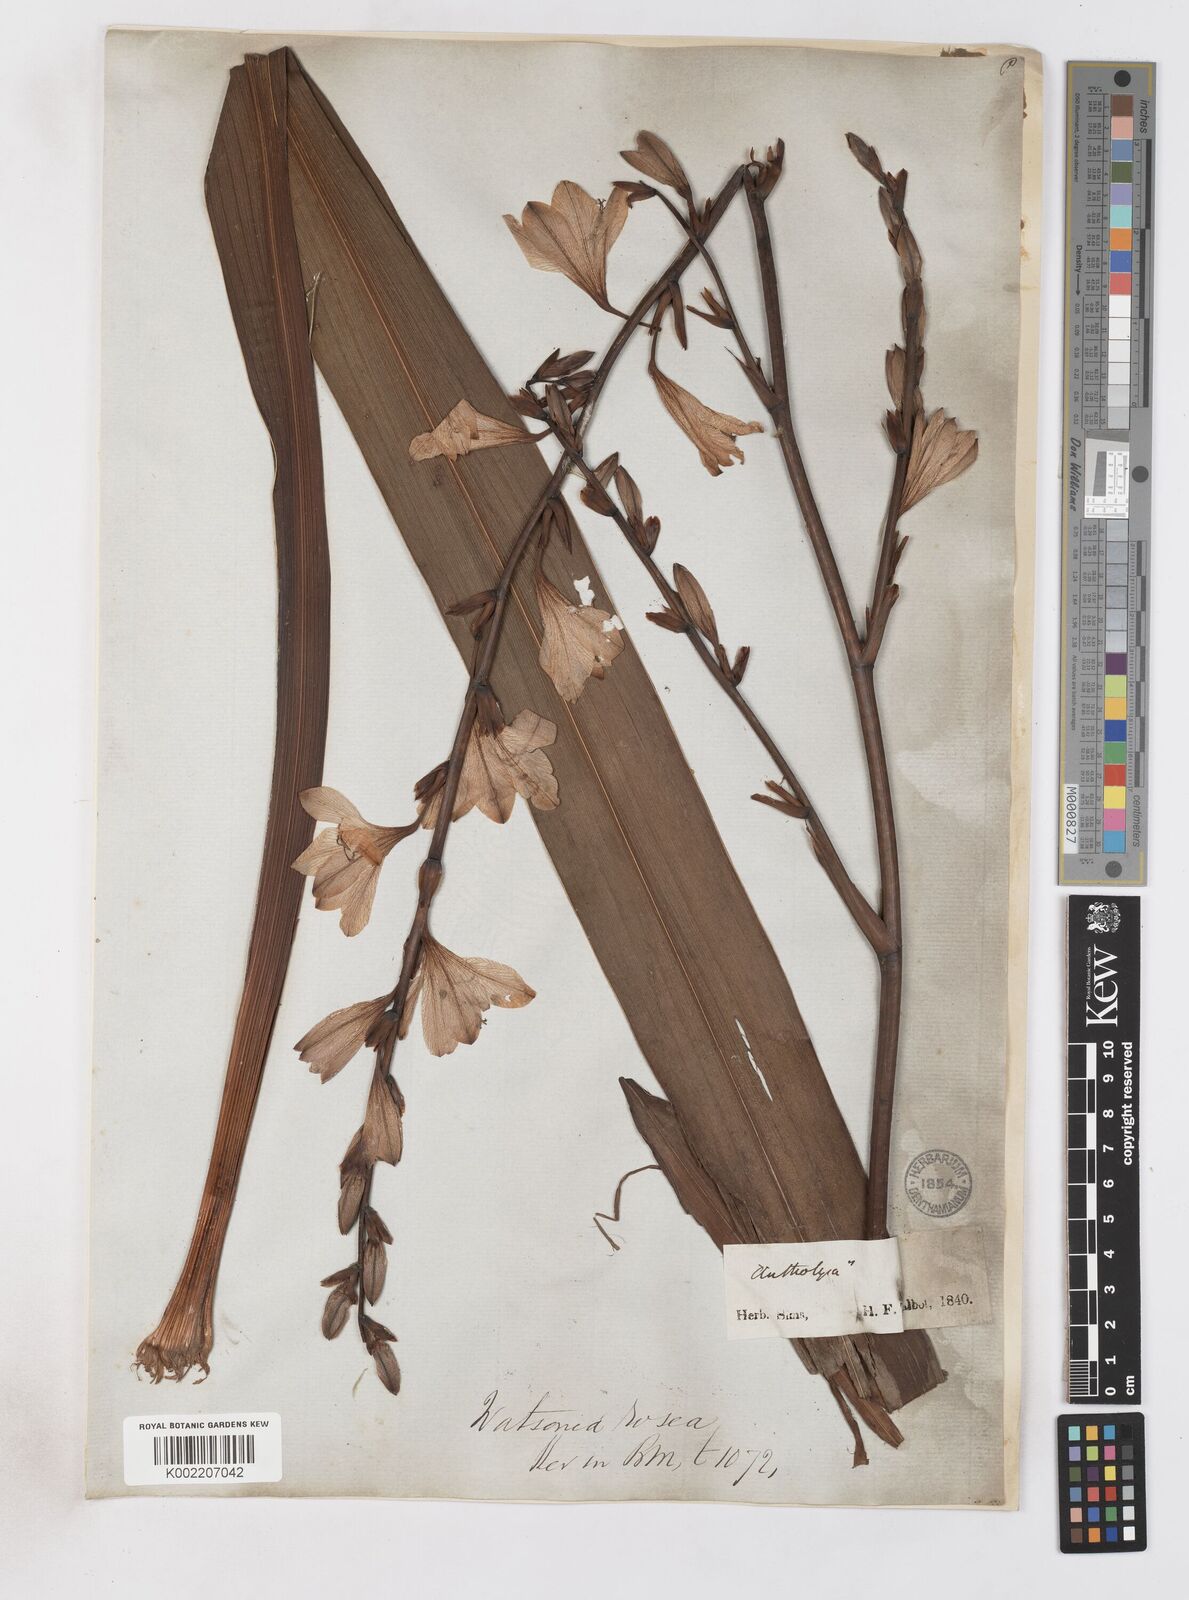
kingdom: Plantae
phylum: Tracheophyta
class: Liliopsida
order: Asparagales
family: Iridaceae
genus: Watsonia
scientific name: Watsonia borbonica
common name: Bugle-lily
